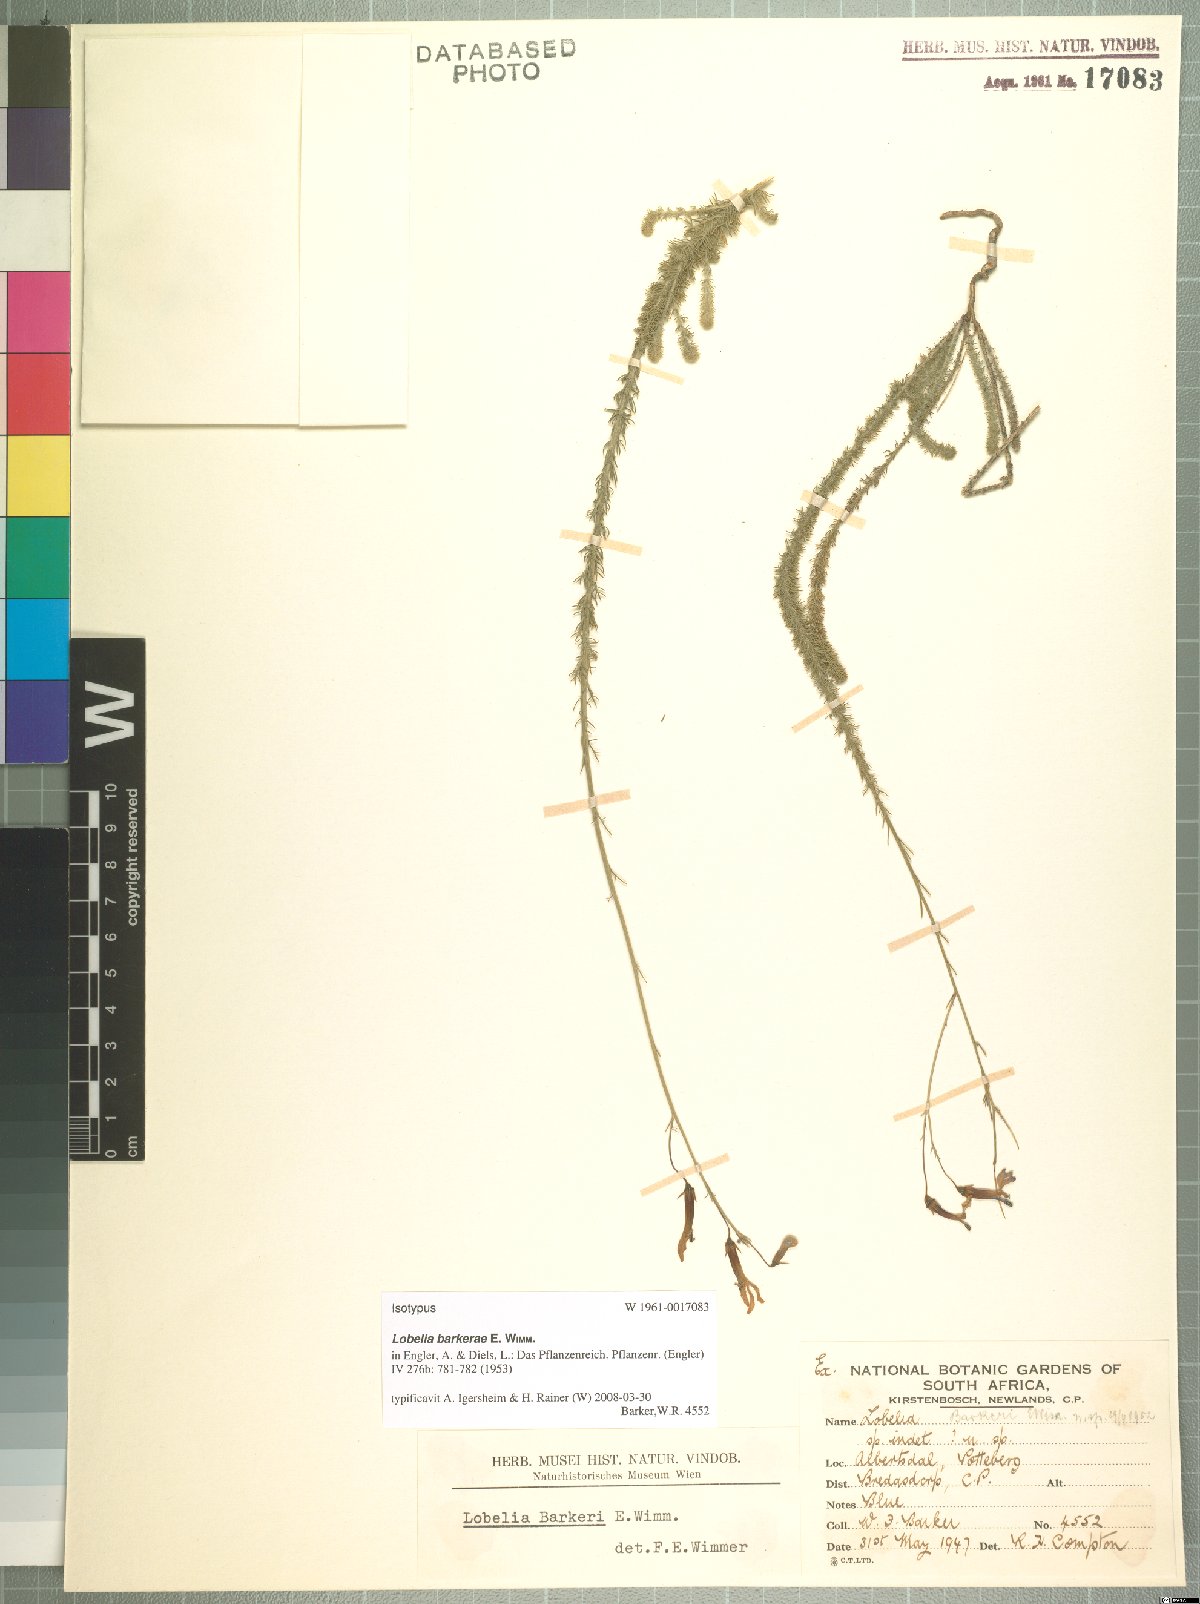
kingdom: Plantae
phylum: Tracheophyta
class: Magnoliopsida
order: Asterales
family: Campanulaceae
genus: Lobelia
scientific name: Lobelia barkerae
